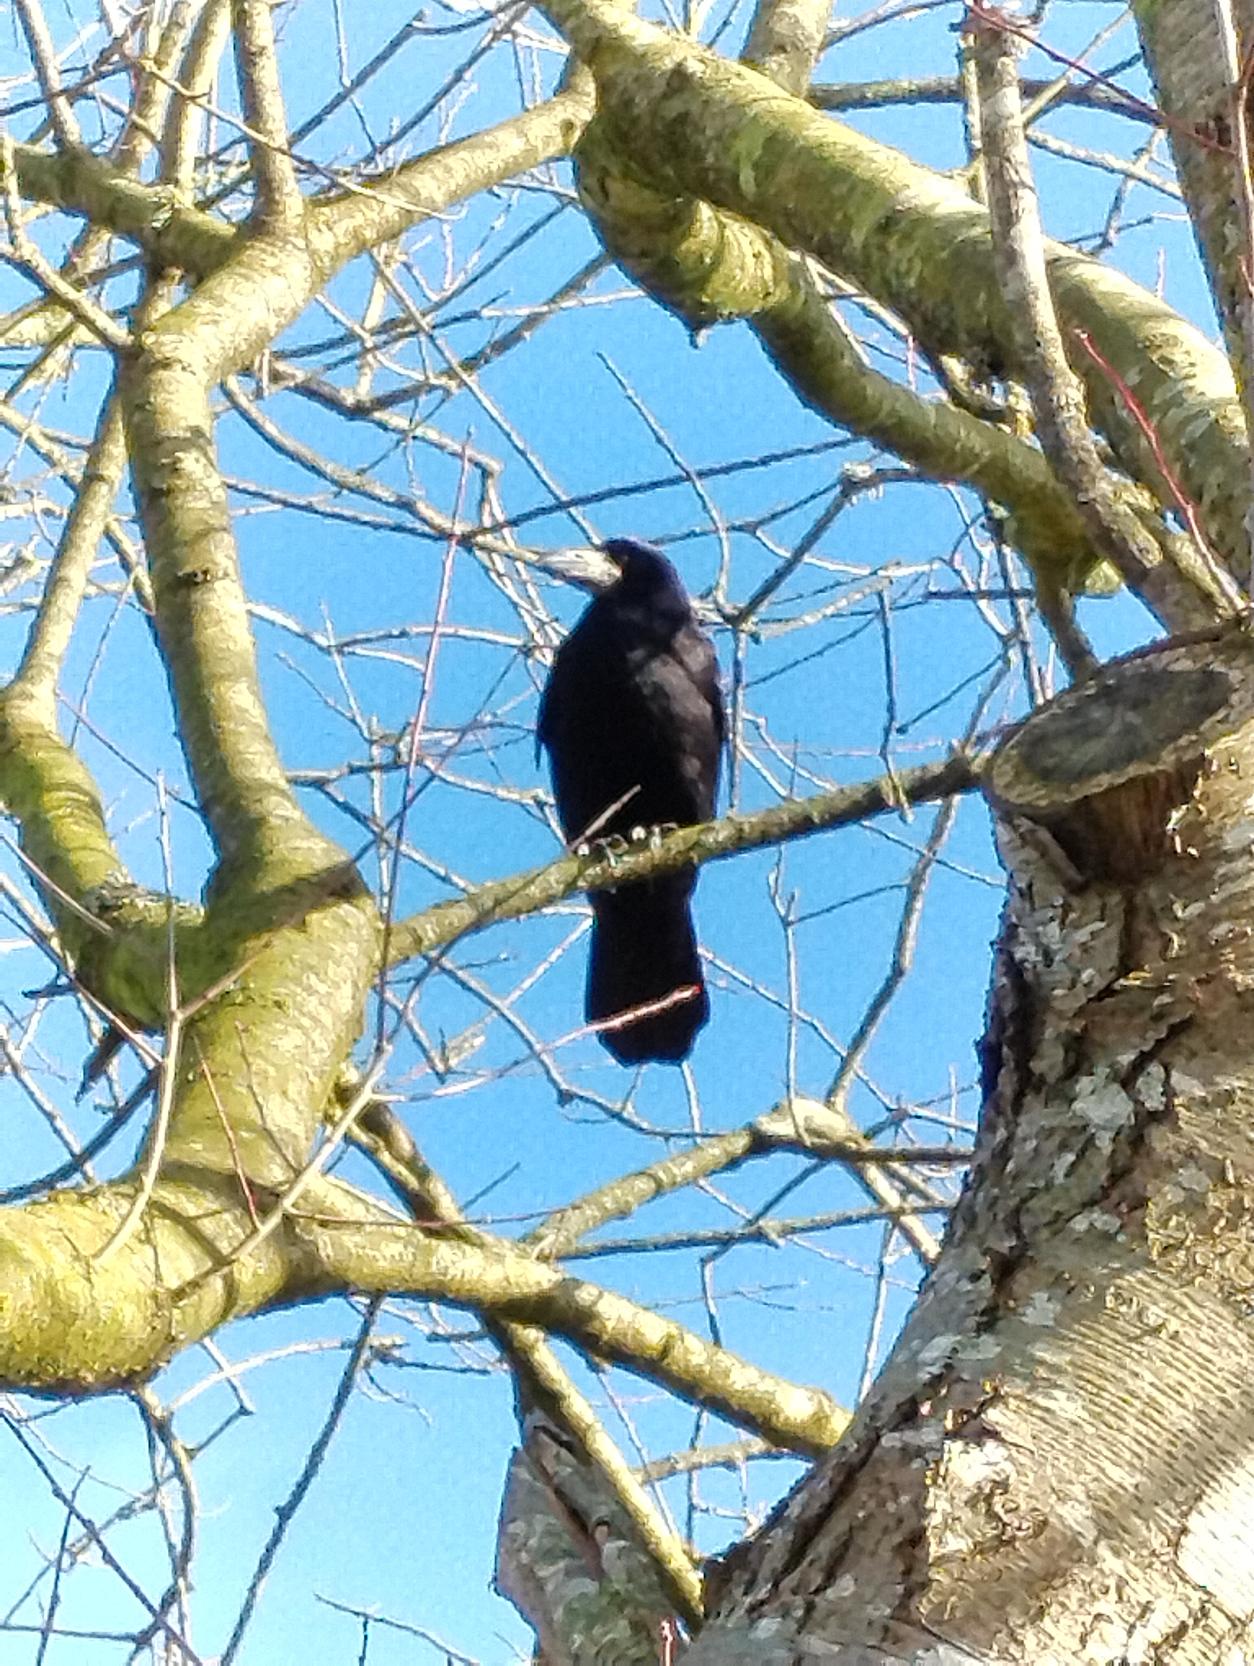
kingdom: Animalia
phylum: Chordata
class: Aves
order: Passeriformes
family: Corvidae
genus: Corvus
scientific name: Corvus frugilegus
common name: Råge
